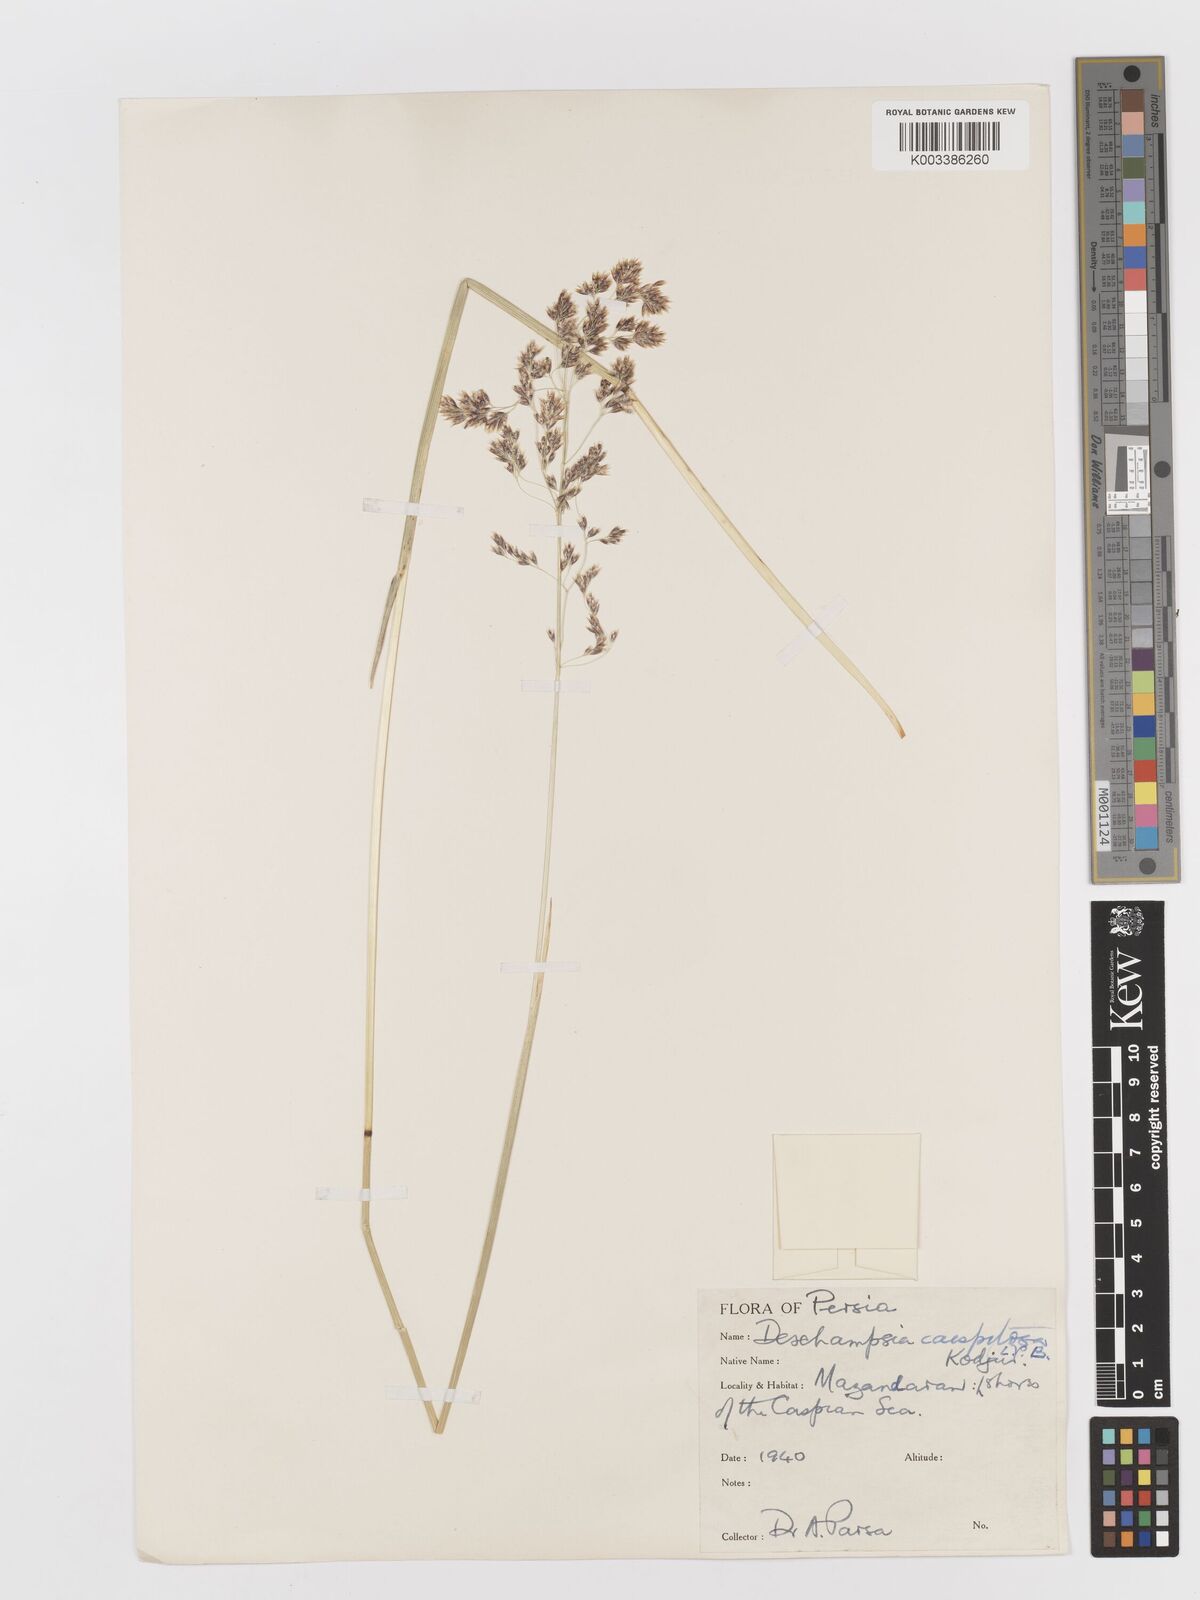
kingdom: Plantae
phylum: Tracheophyta
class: Liliopsida
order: Poales
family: Poaceae
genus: Deschampsia
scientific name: Deschampsia cespitosa
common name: Tufted hair-grass
